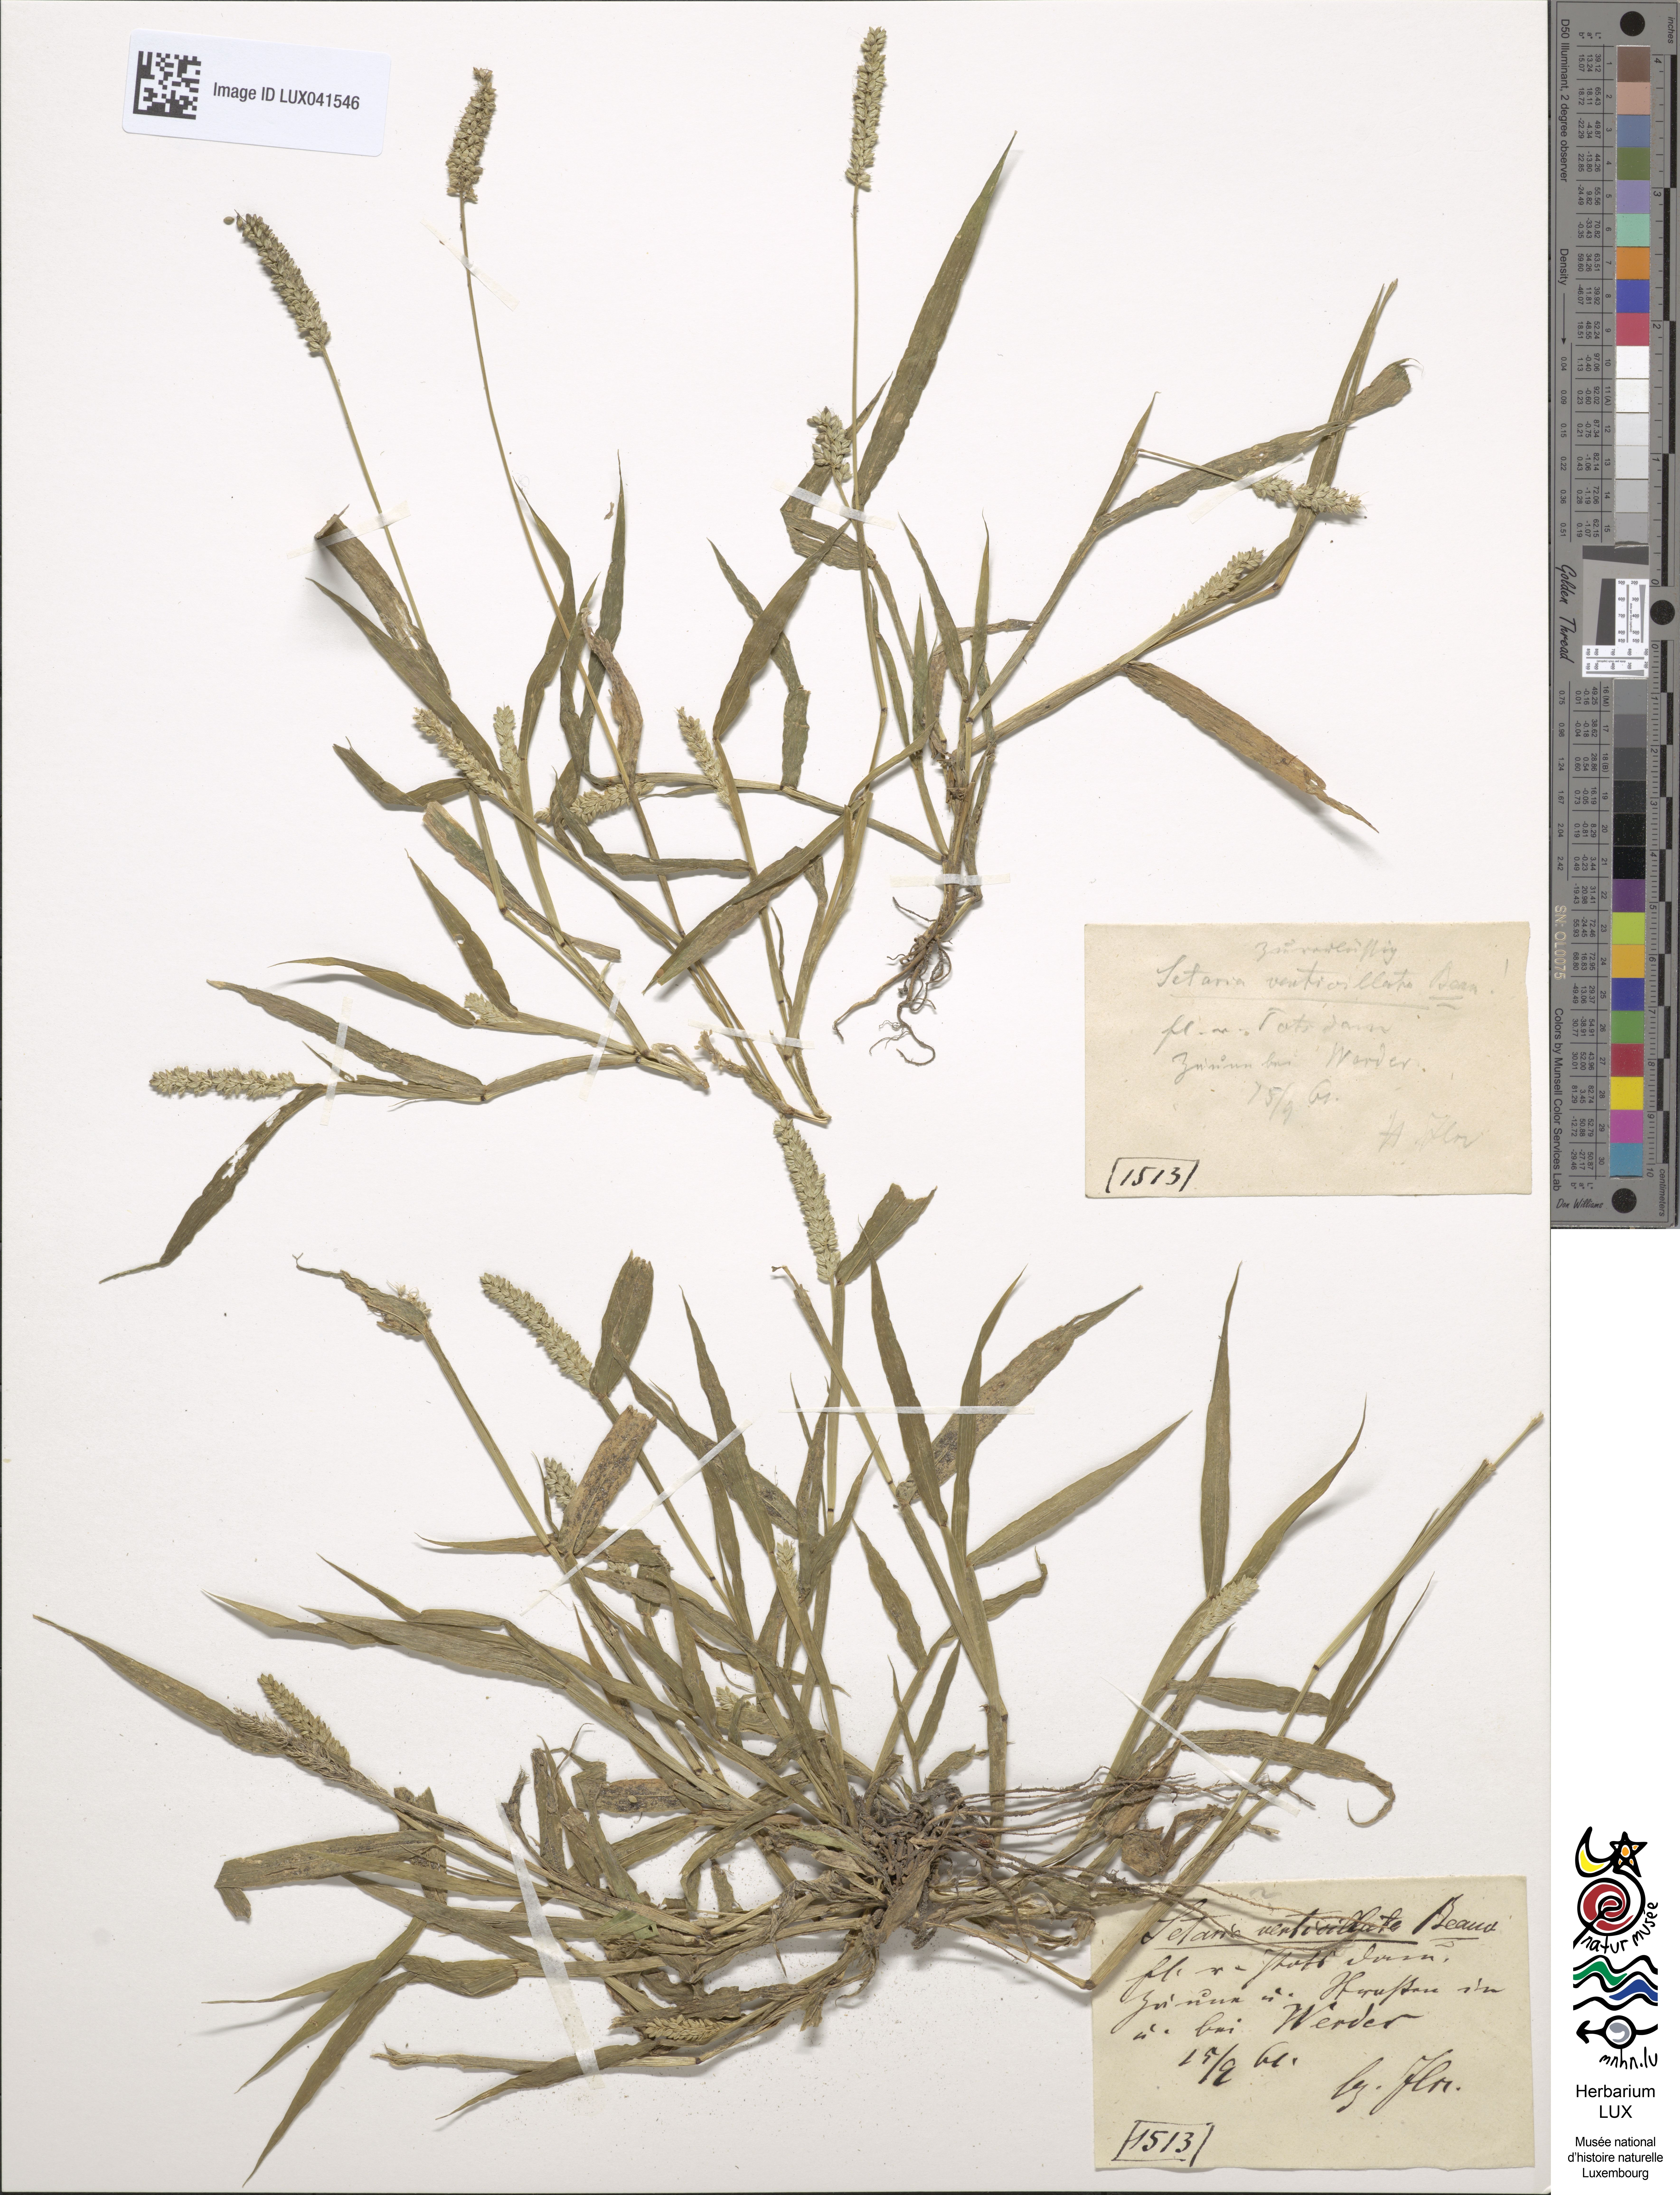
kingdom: Plantae
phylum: Tracheophyta
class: Liliopsida
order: Poales
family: Poaceae
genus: Setaria
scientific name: Setaria verticillata
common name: Hooked bristlegrass
